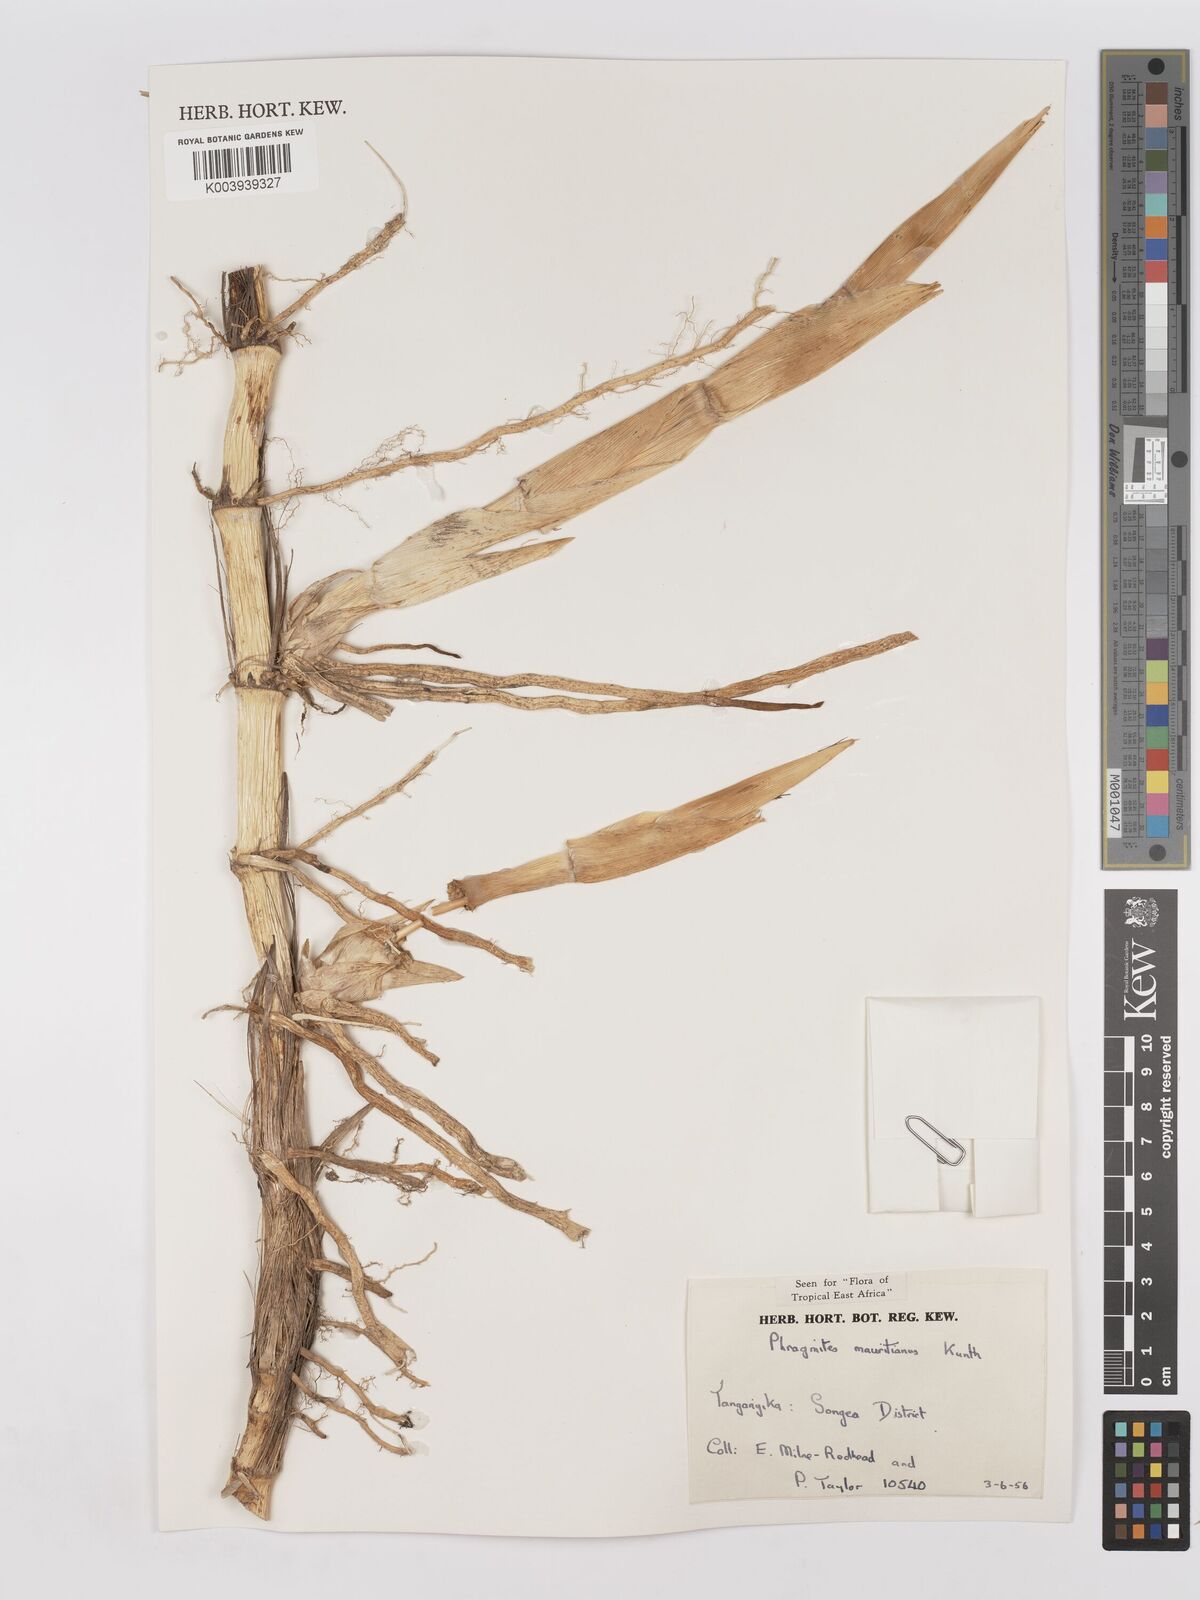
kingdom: Plantae
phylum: Tracheophyta
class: Liliopsida
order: Poales
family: Poaceae
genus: Phragmites
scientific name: Phragmites mauritianus
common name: Reed grass
